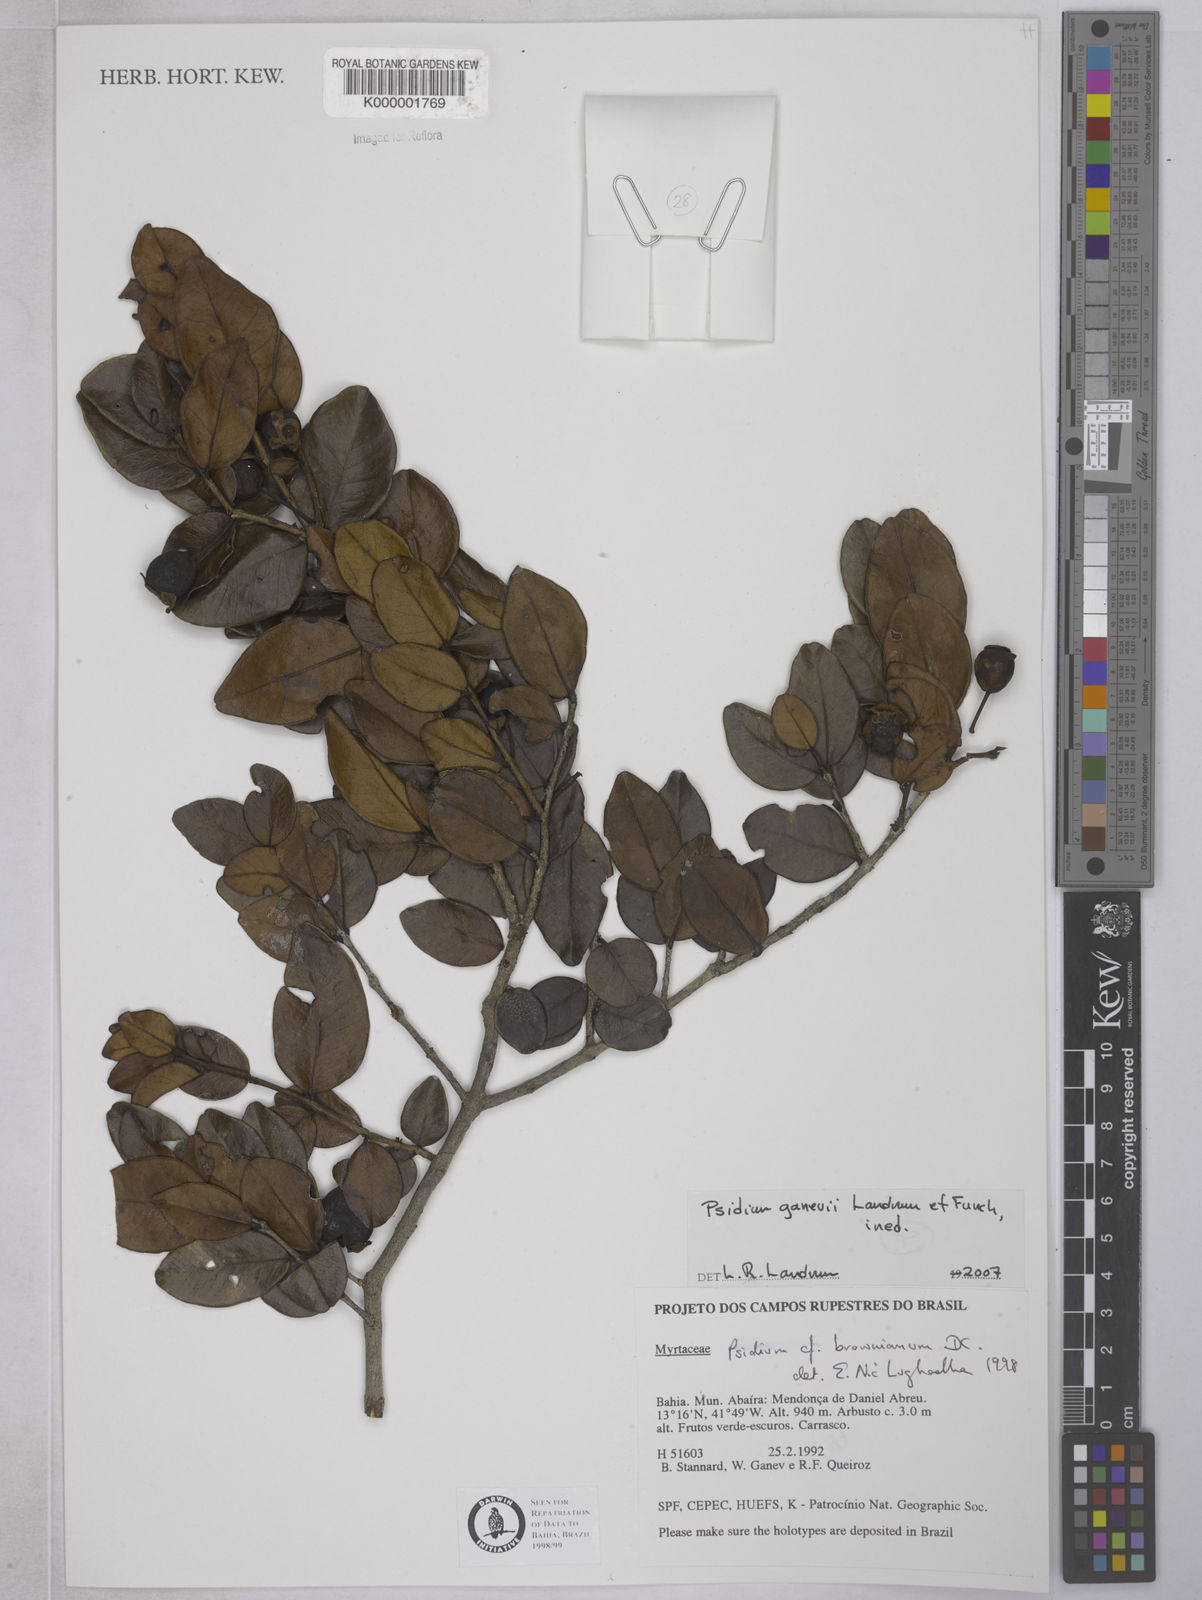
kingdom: Plantae
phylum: Tracheophyta
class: Magnoliopsida
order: Myrtales
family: Myrtaceae
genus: Psidium
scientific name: Psidium brownianum
